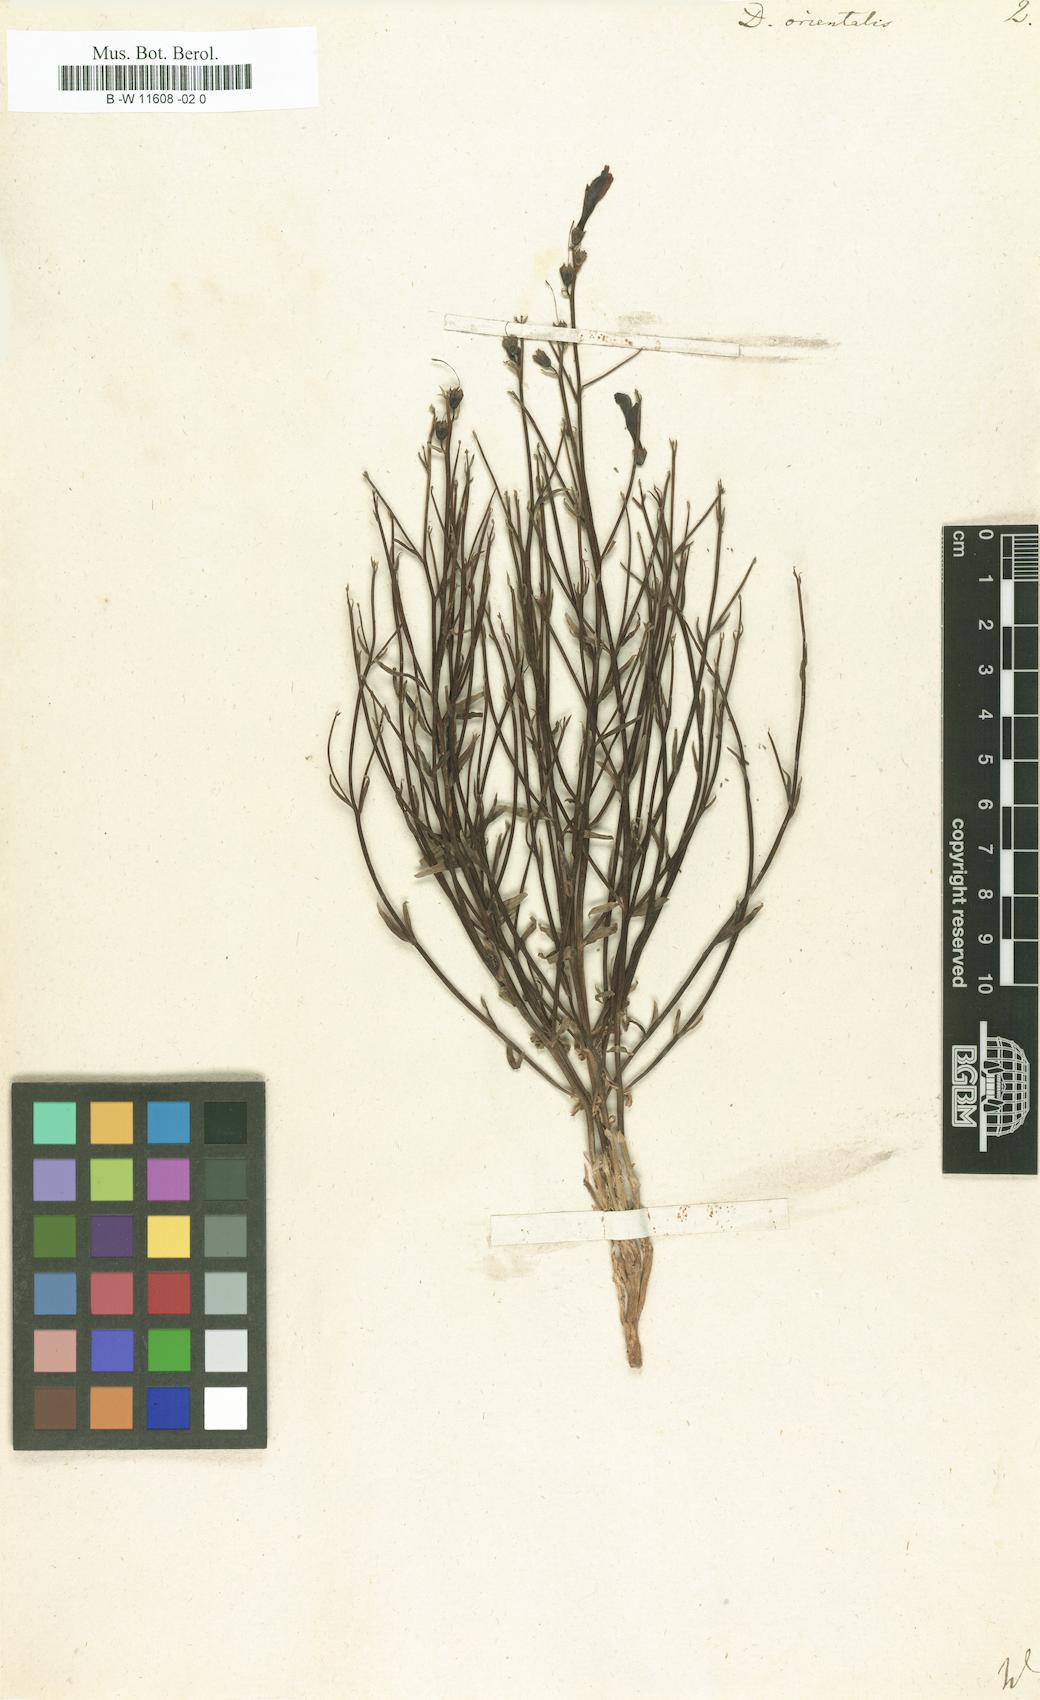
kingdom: Plantae
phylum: Tracheophyta
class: Magnoliopsida
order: Lamiales
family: Mazaceae
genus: Dodartia
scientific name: Dodartia orientalis
